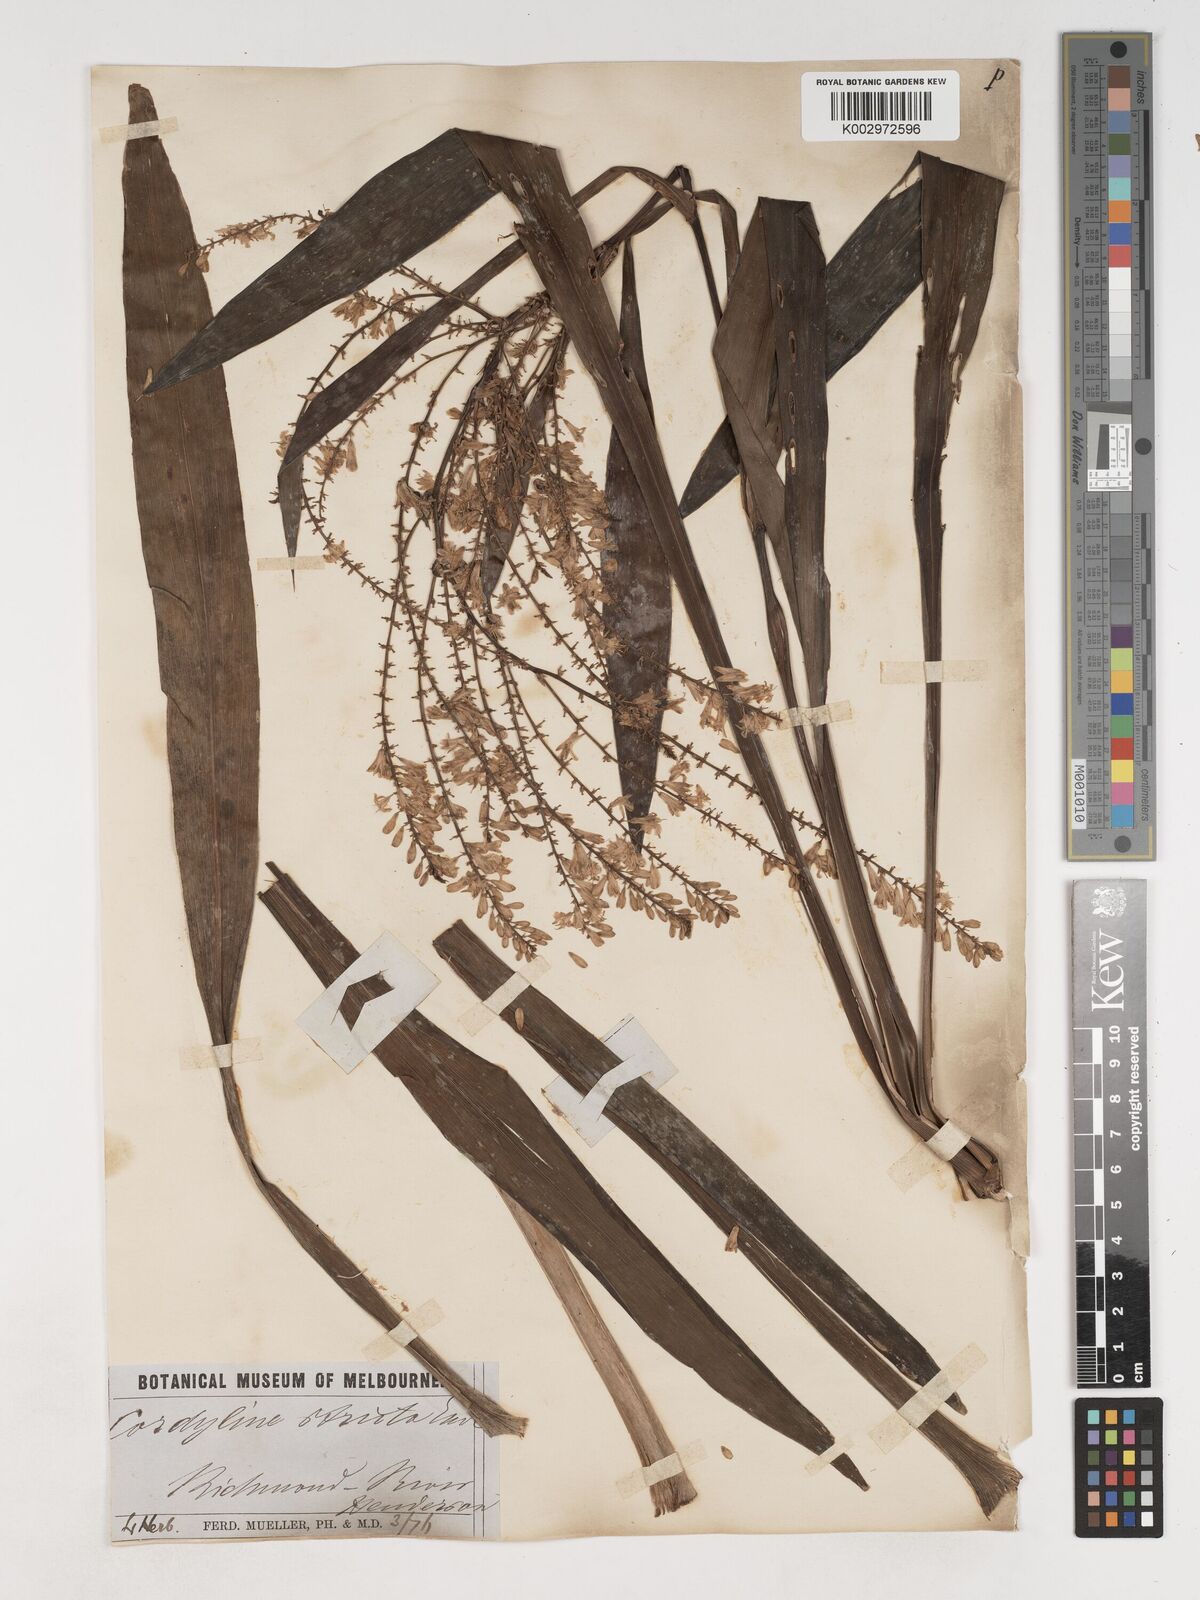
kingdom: Plantae
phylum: Tracheophyta
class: Liliopsida
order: Asparagales
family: Asparagaceae
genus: Cordyline
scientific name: Cordyline stricta
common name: Narrow-leaf palm-lily
